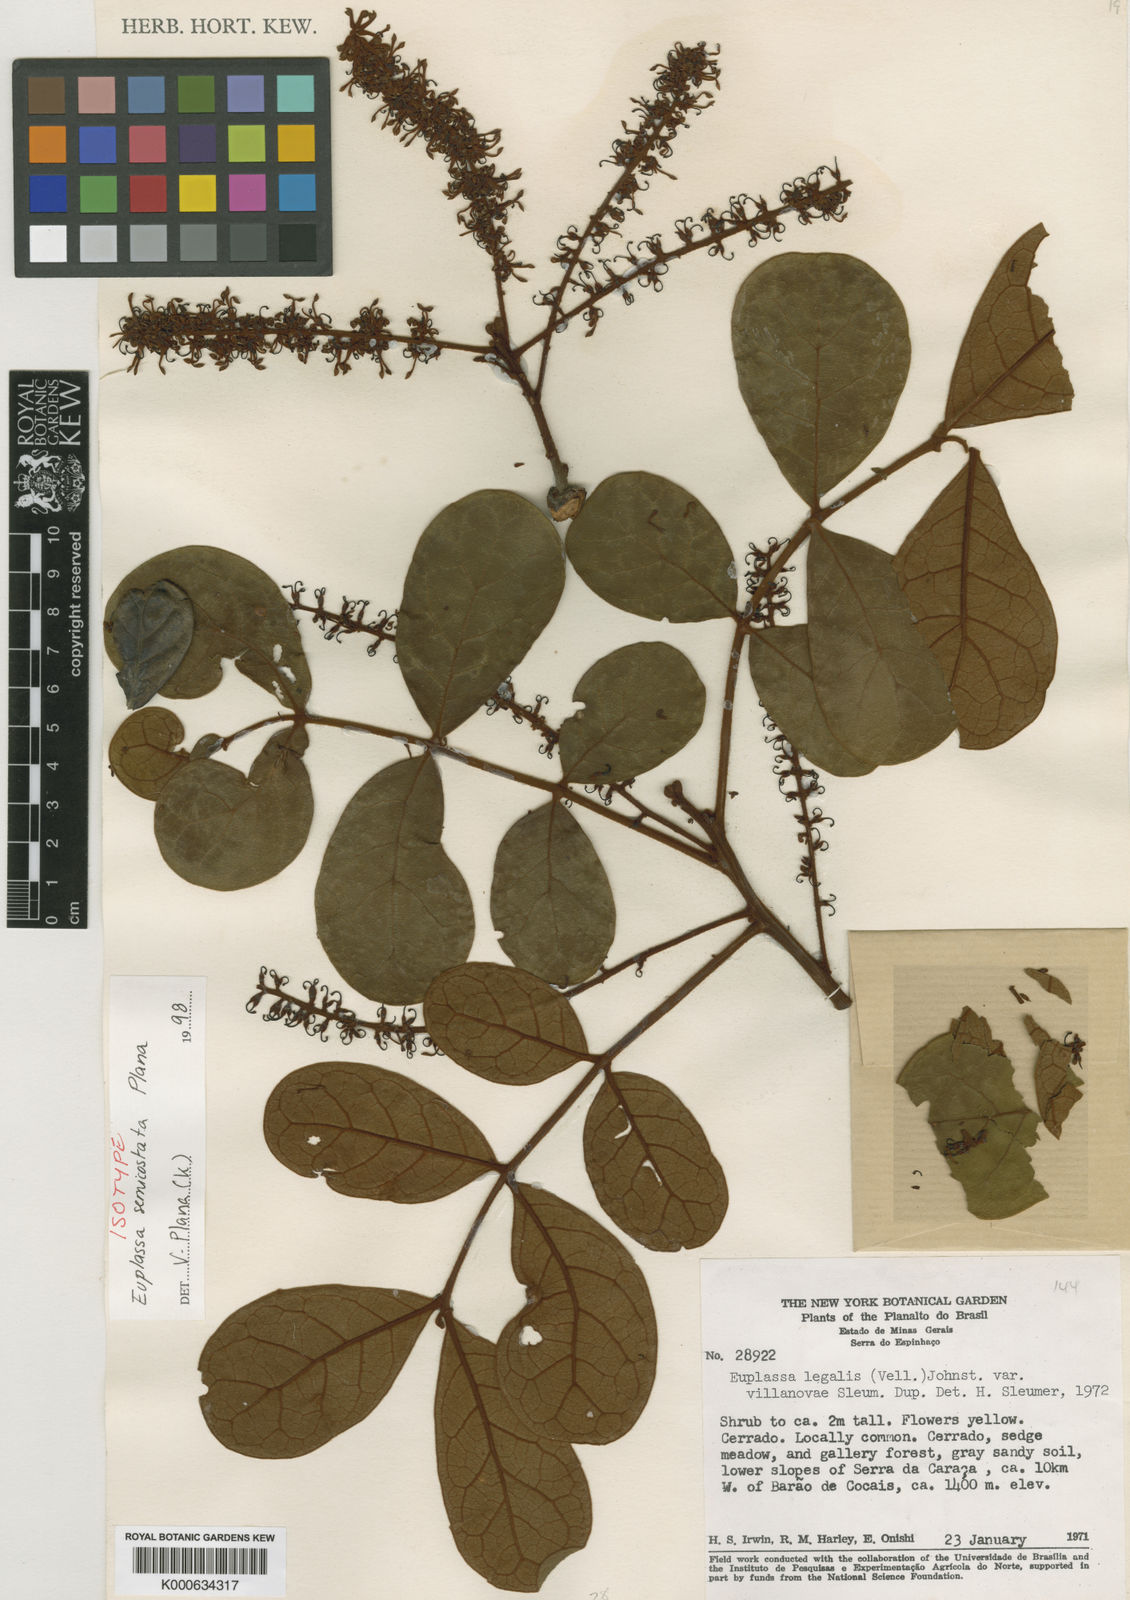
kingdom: Plantae
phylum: Tracheophyta
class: Magnoliopsida
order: Proteales
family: Proteaceae
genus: Euplassa
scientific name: Euplassa semicostata
